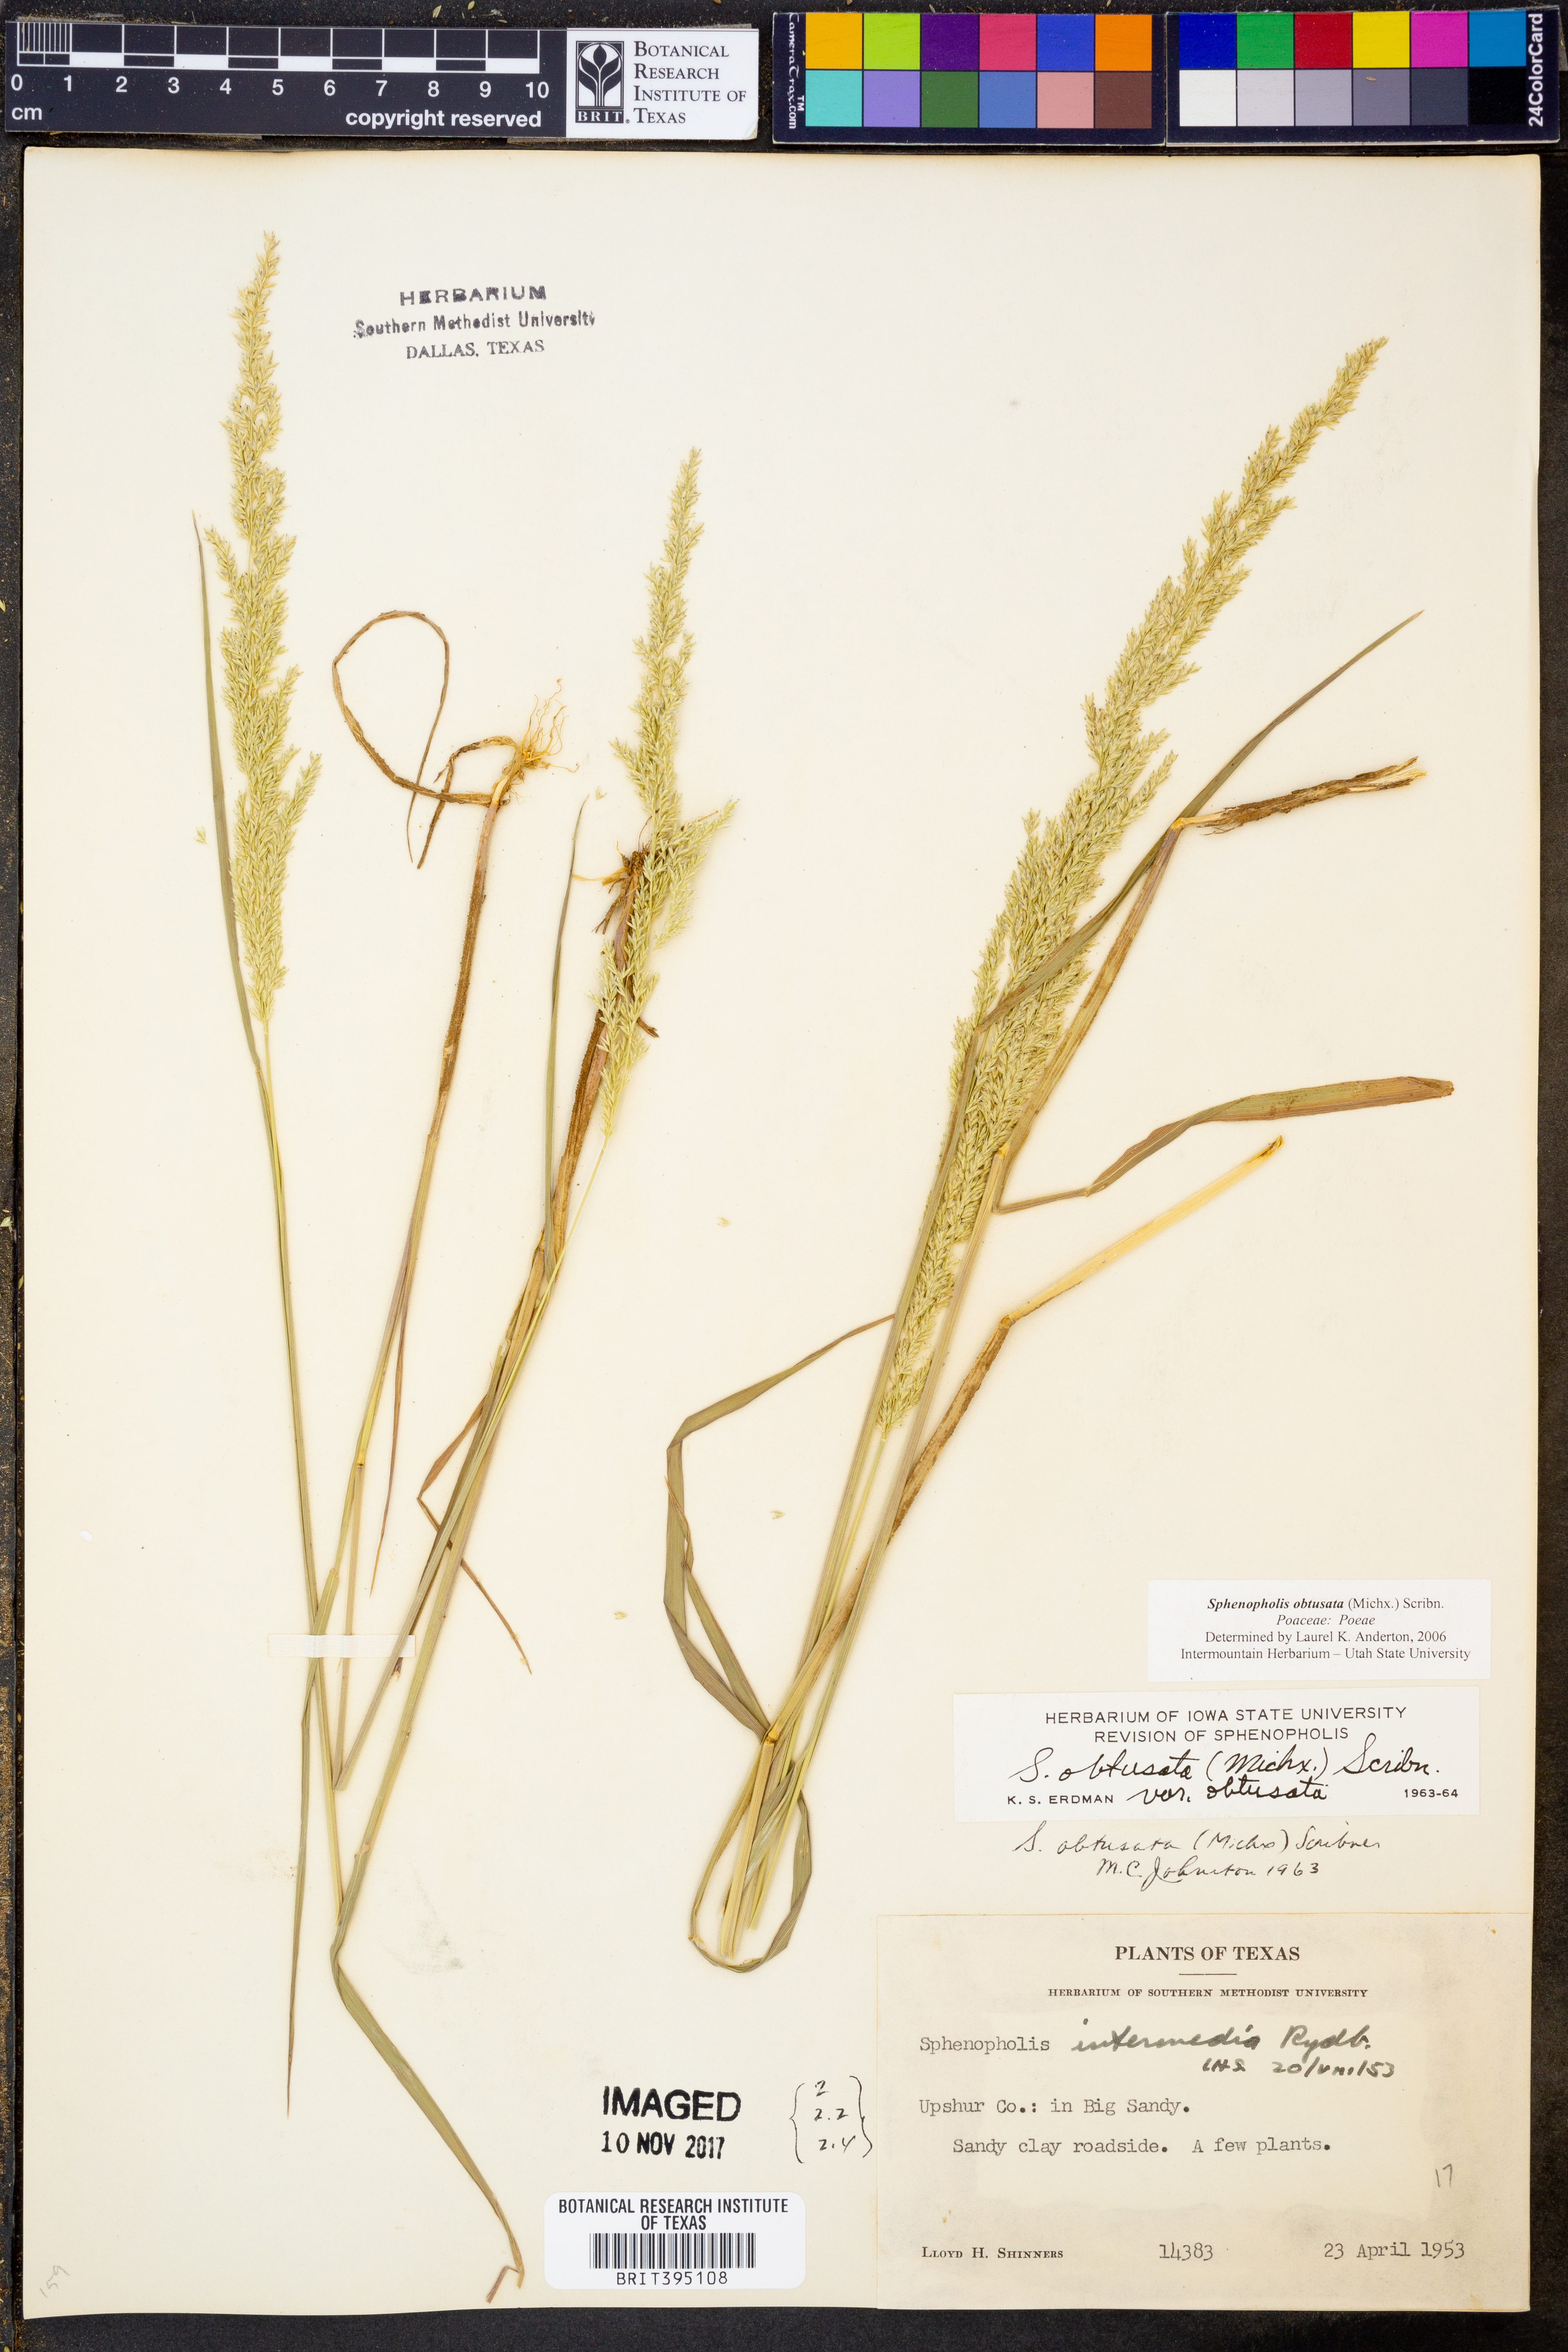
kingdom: Plantae
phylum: Tracheophyta
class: Liliopsida
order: Poales
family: Poaceae
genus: Sphenopholis
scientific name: Sphenopholis obtusata
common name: Prairie grass
